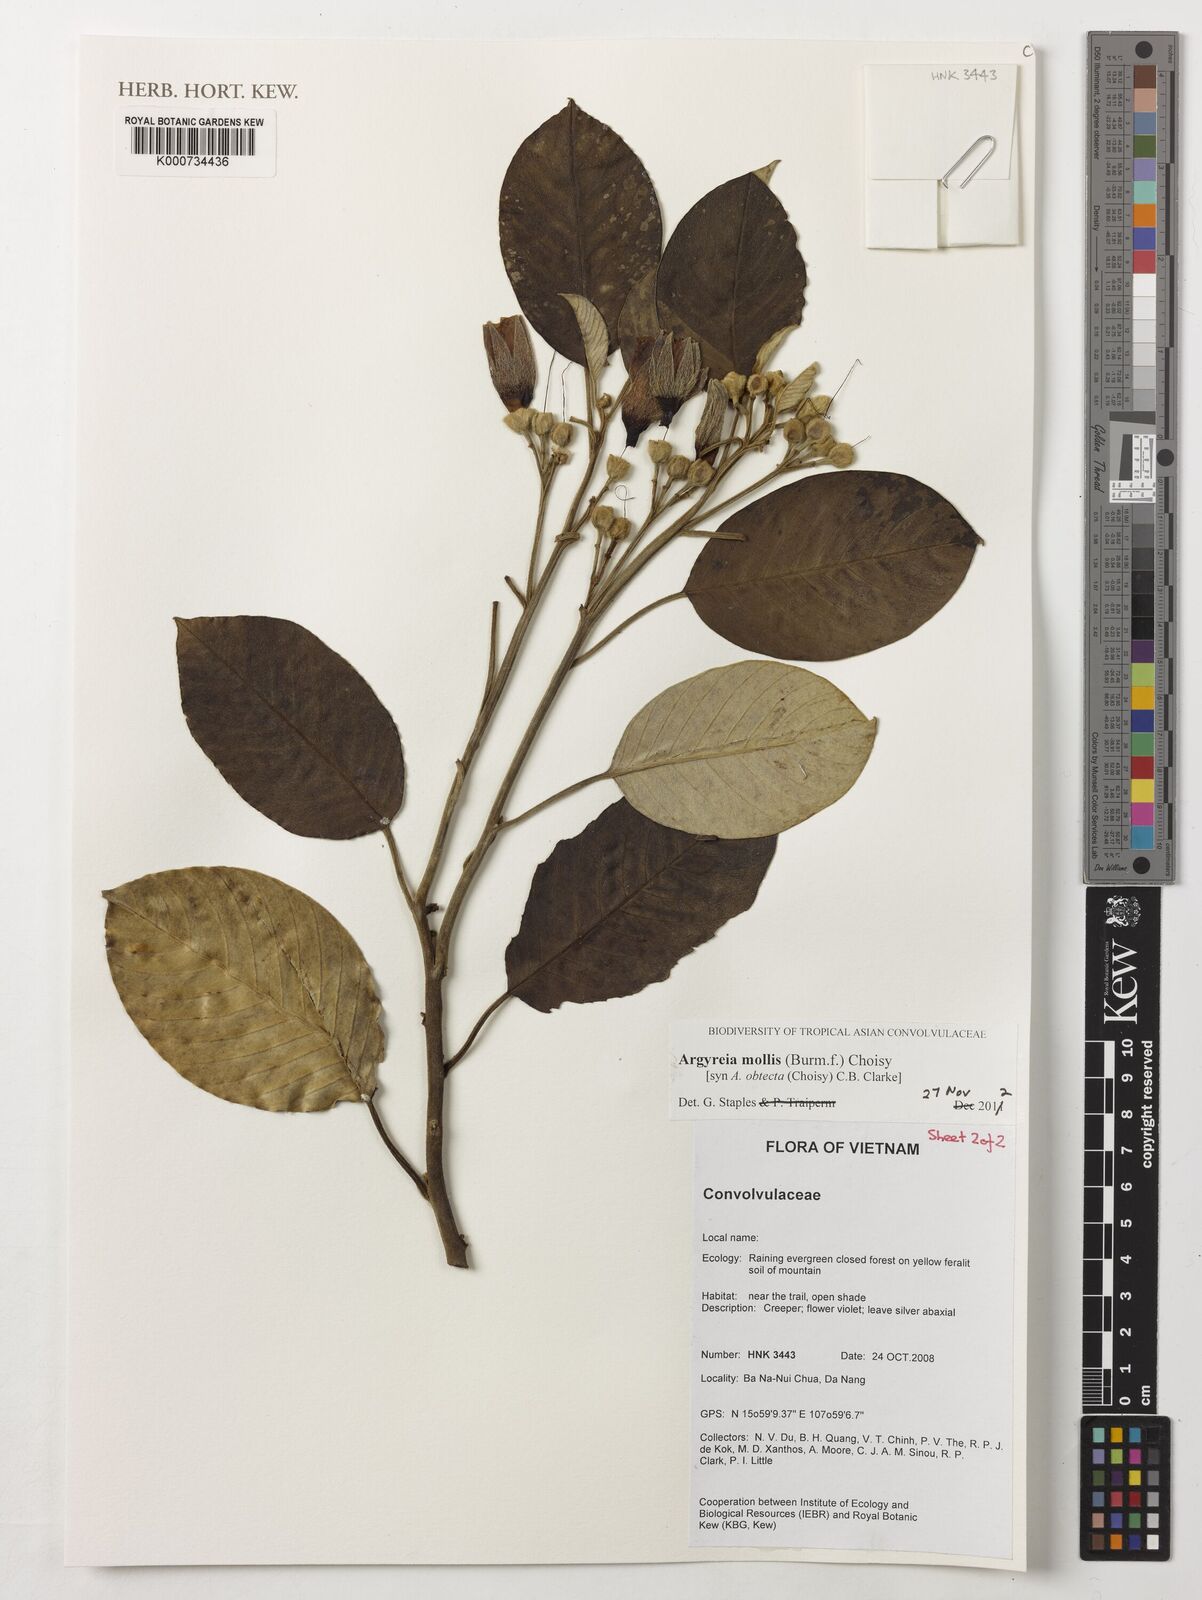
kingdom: Plantae
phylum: Tracheophyta
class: Magnoliopsida
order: Solanales
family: Convolvulaceae
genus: Argyreia
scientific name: Argyreia mollis
